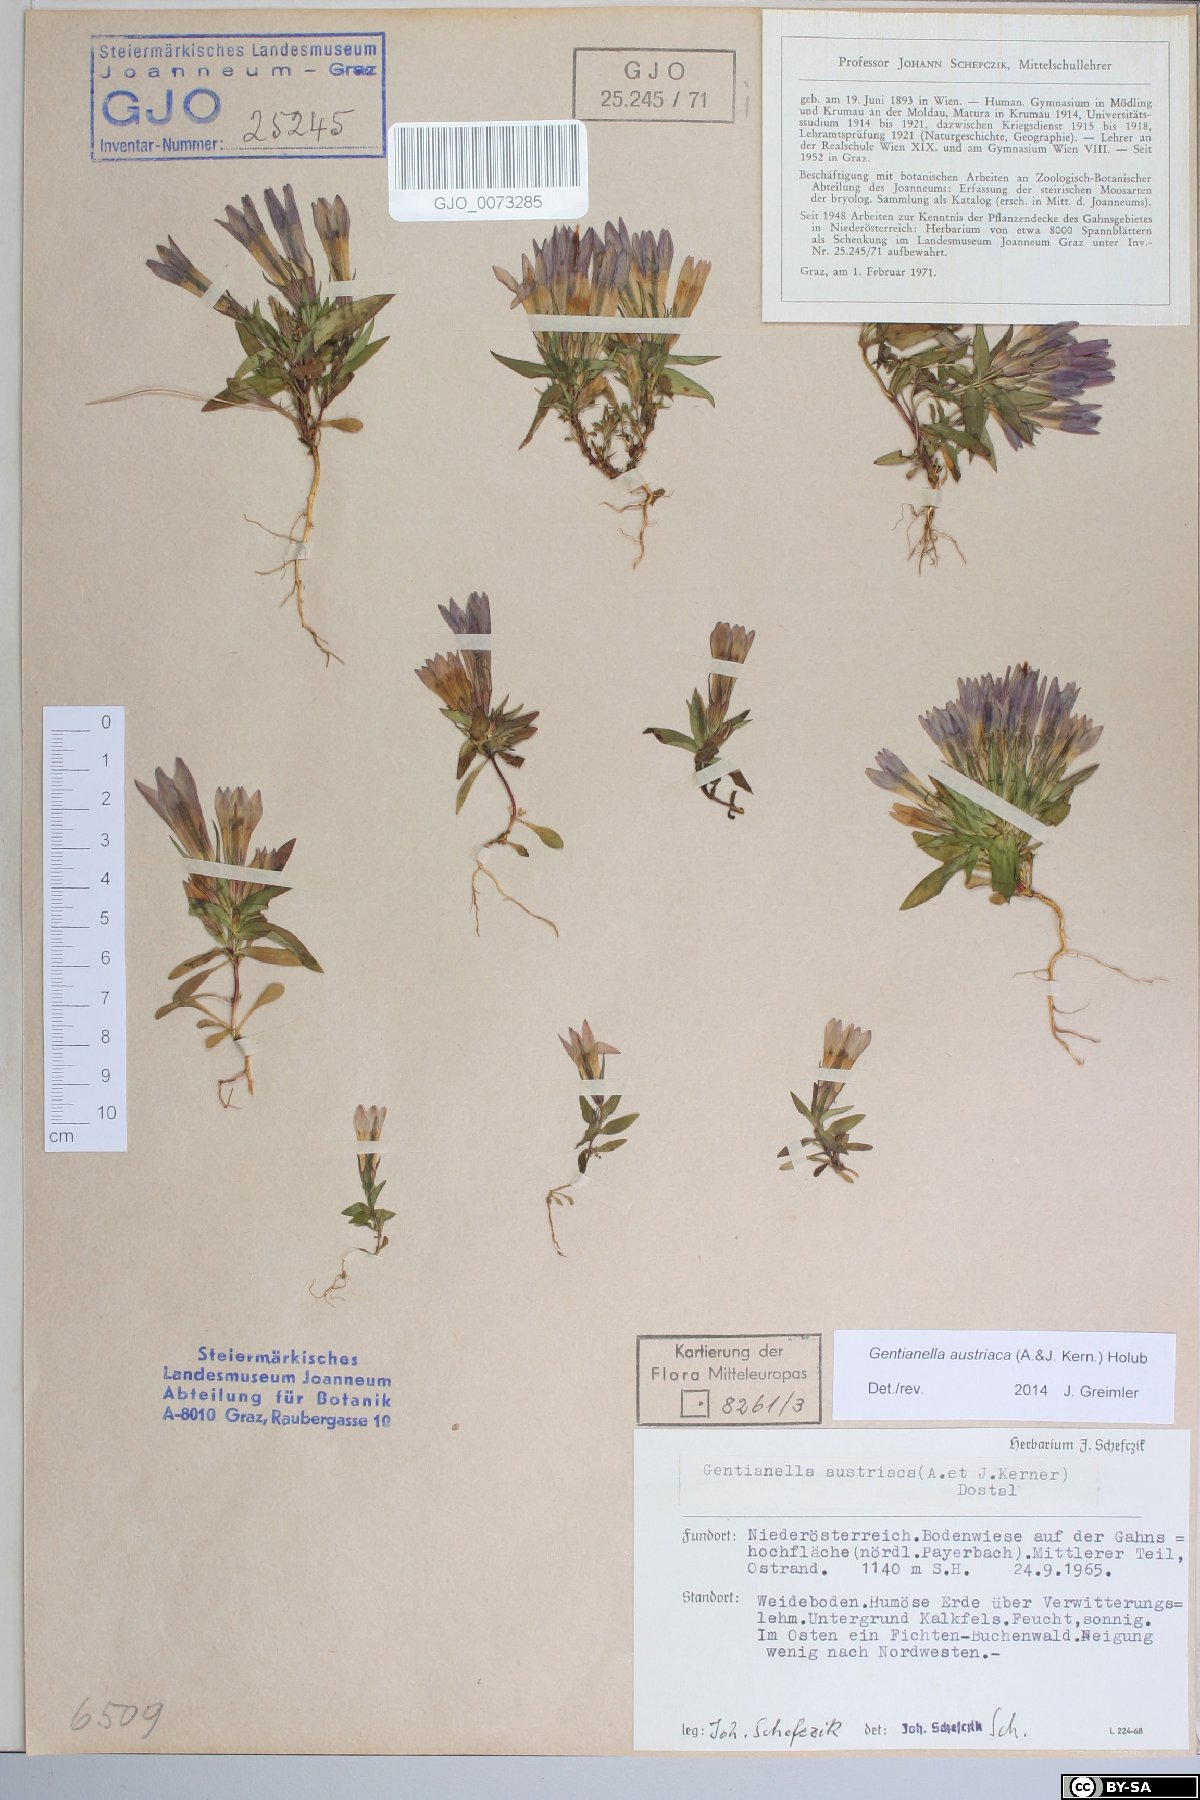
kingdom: Plantae
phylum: Tracheophyta
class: Magnoliopsida
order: Gentianales
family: Gentianaceae
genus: Gentianella
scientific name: Gentianella austriaca
